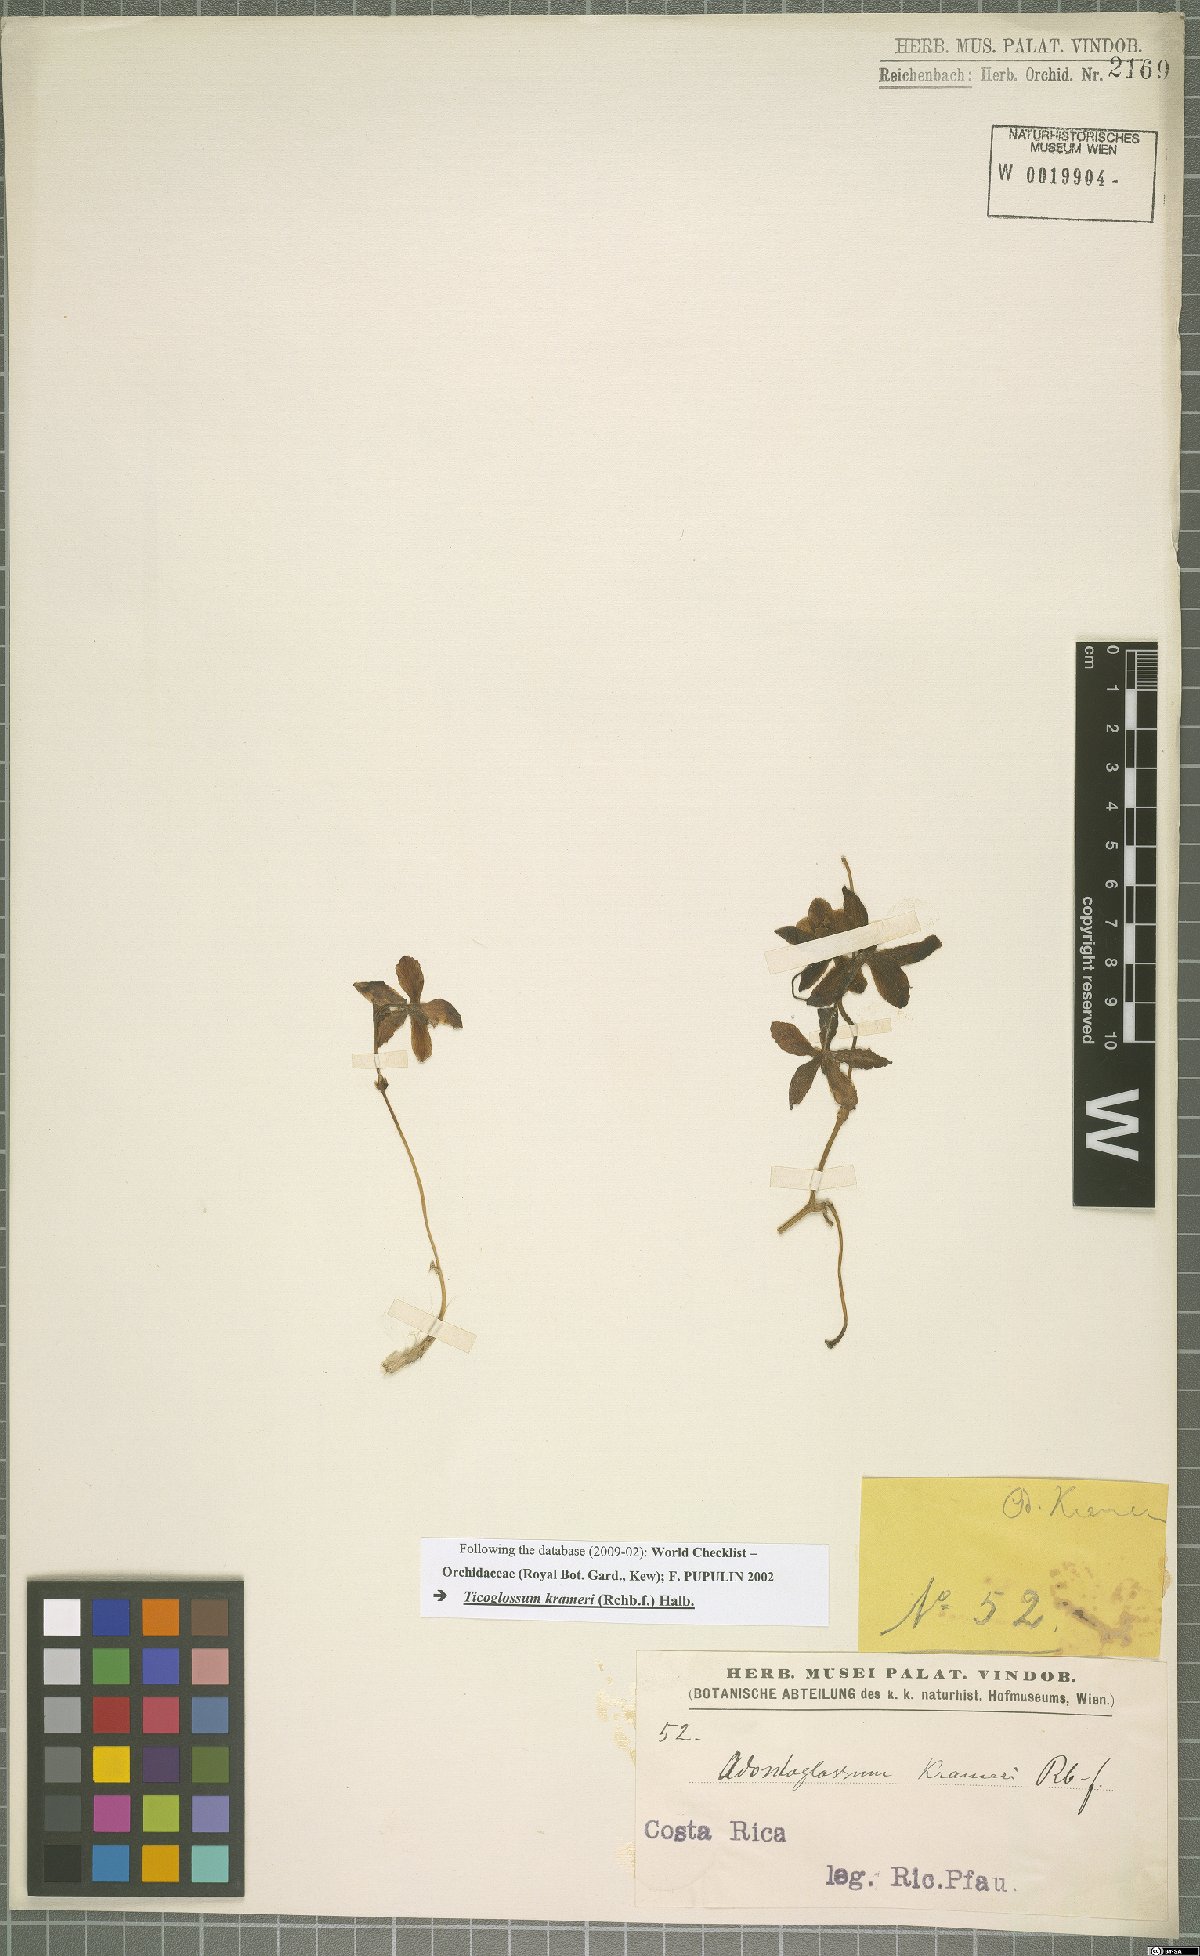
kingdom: Plantae
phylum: Tracheophyta
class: Liliopsida
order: Asparagales
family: Orchidaceae
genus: Rossioglossum
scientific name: Rossioglossum krameri
